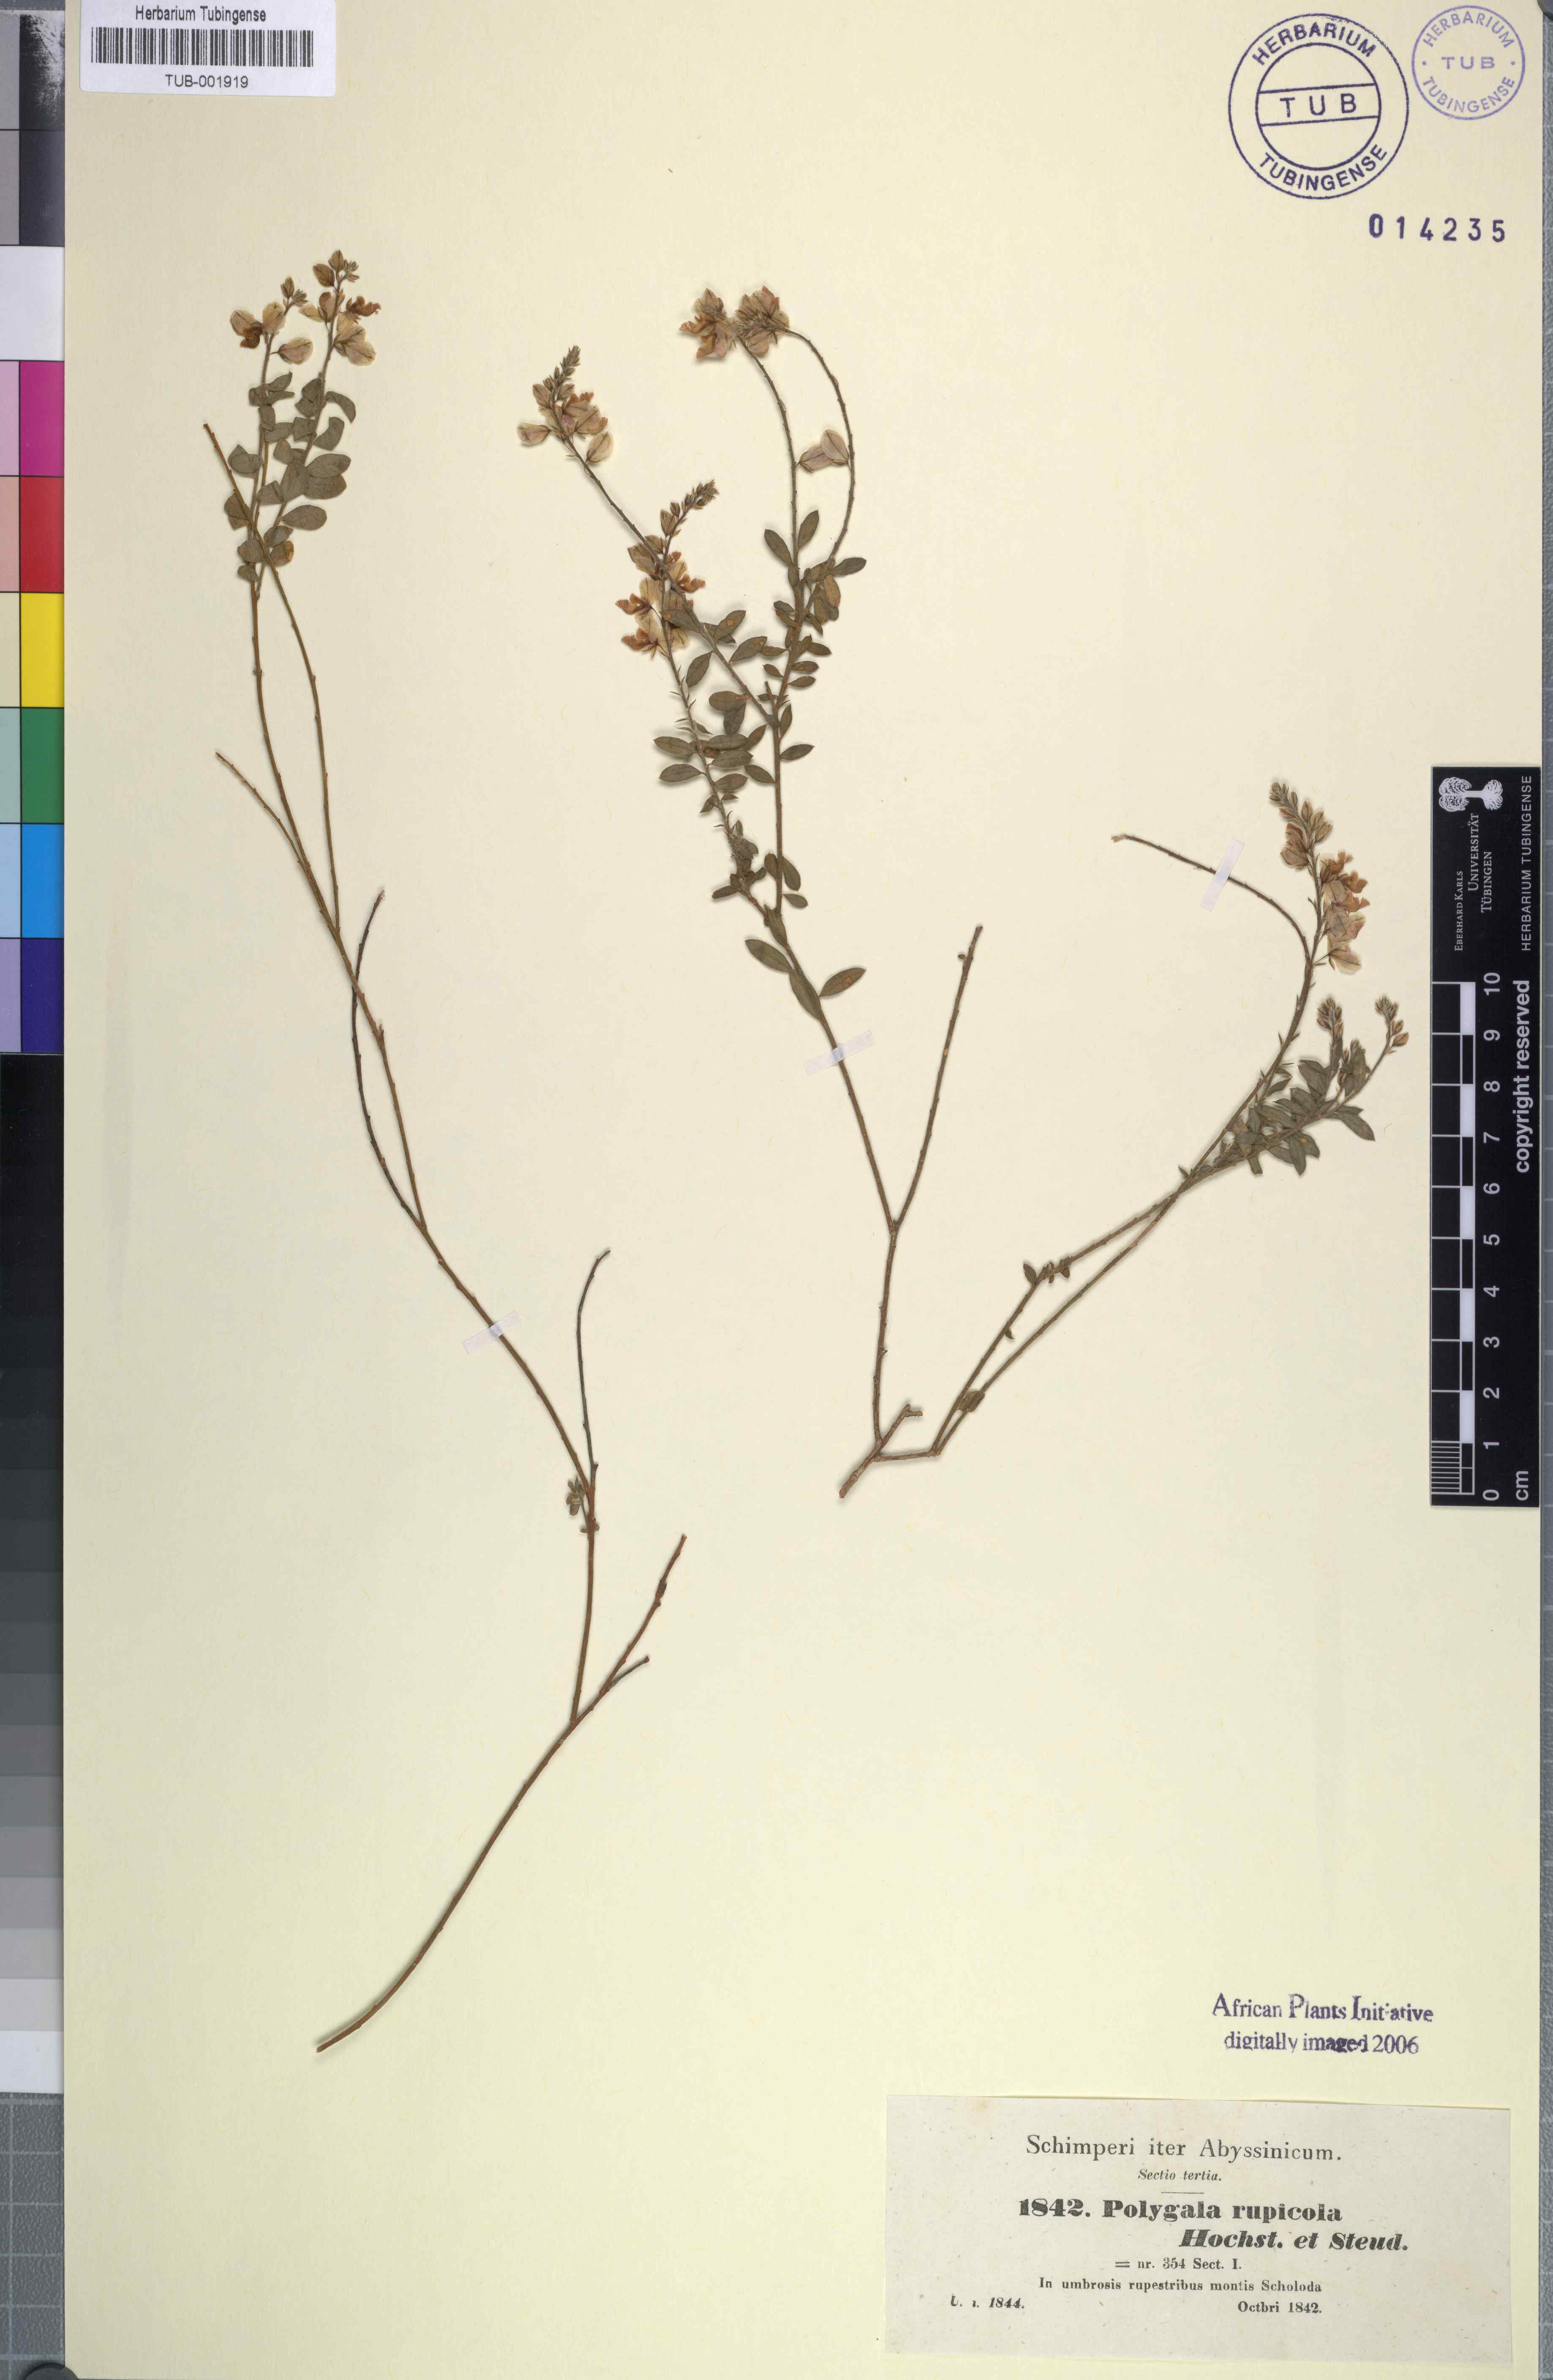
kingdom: Plantae
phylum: Tracheophyta
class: Magnoliopsida
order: Fabales
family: Polygalaceae
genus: Polygala
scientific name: Polygala rupicola
